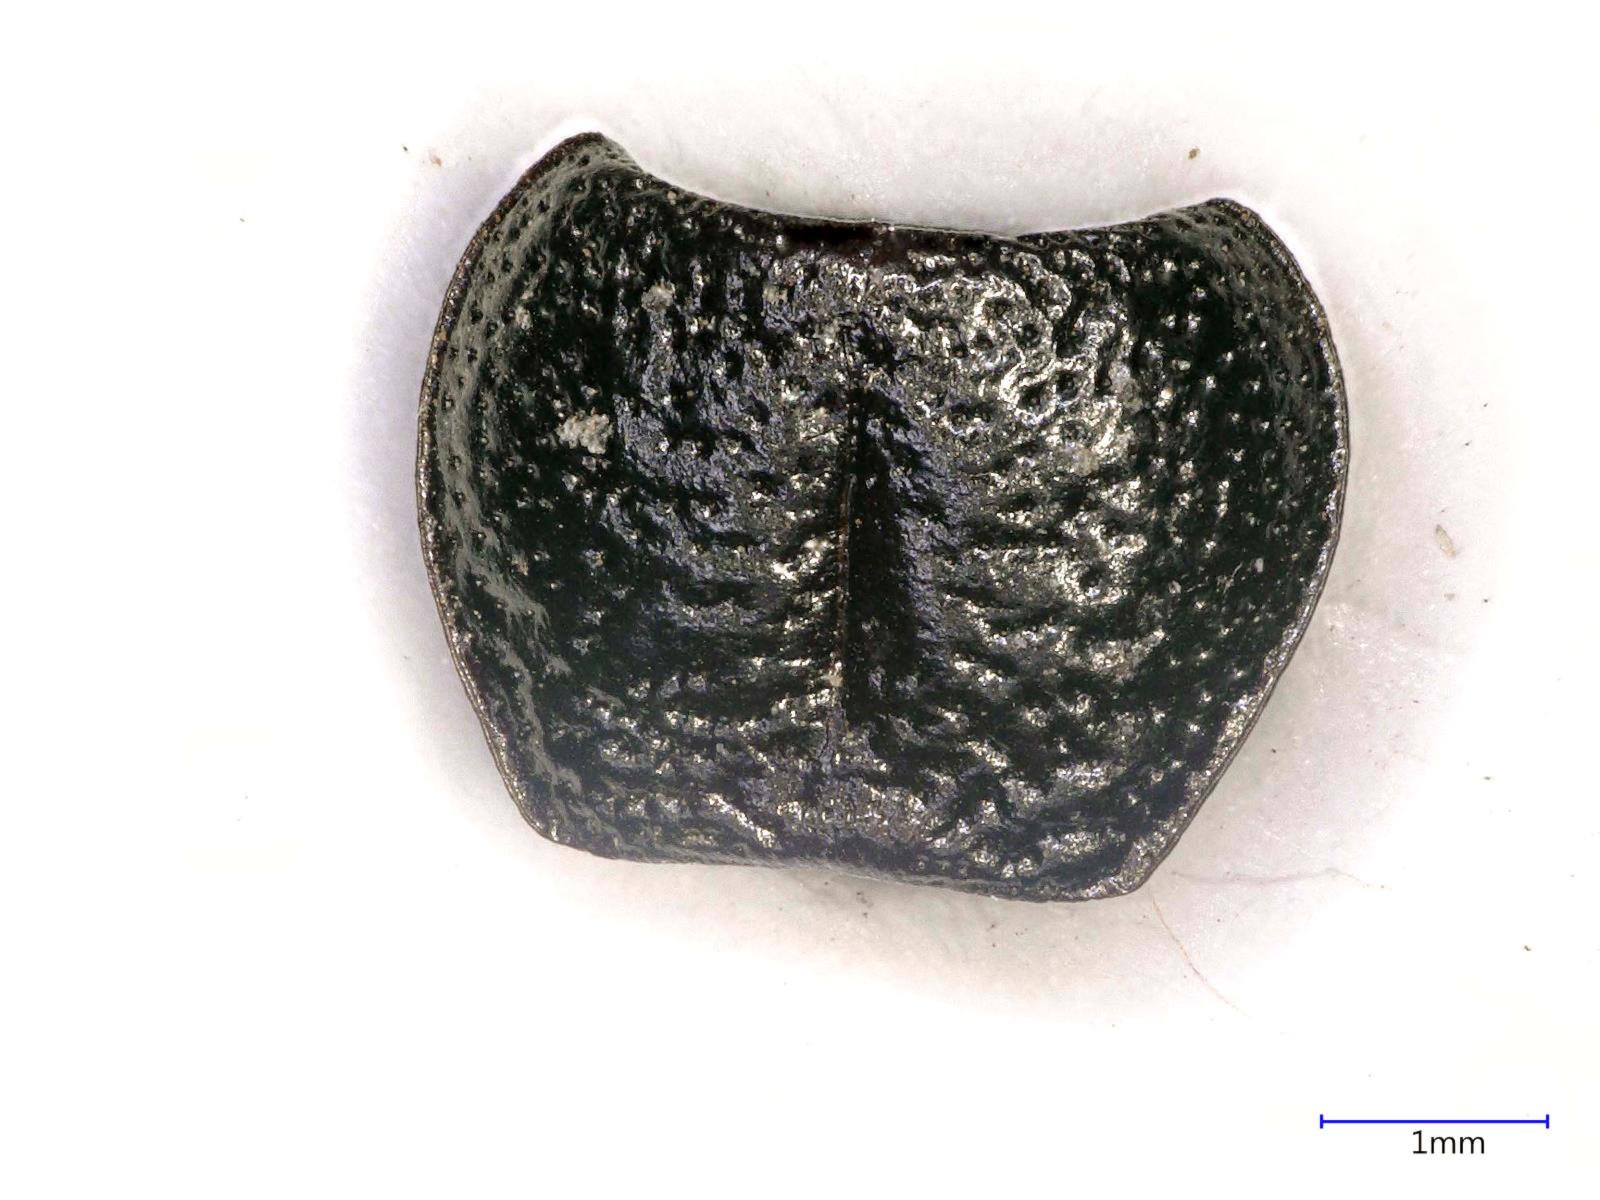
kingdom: Animalia
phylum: Arthropoda
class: Insecta
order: Coleoptera
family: Carabidae
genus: Dicheirus
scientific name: Dicheirus dilatatus
